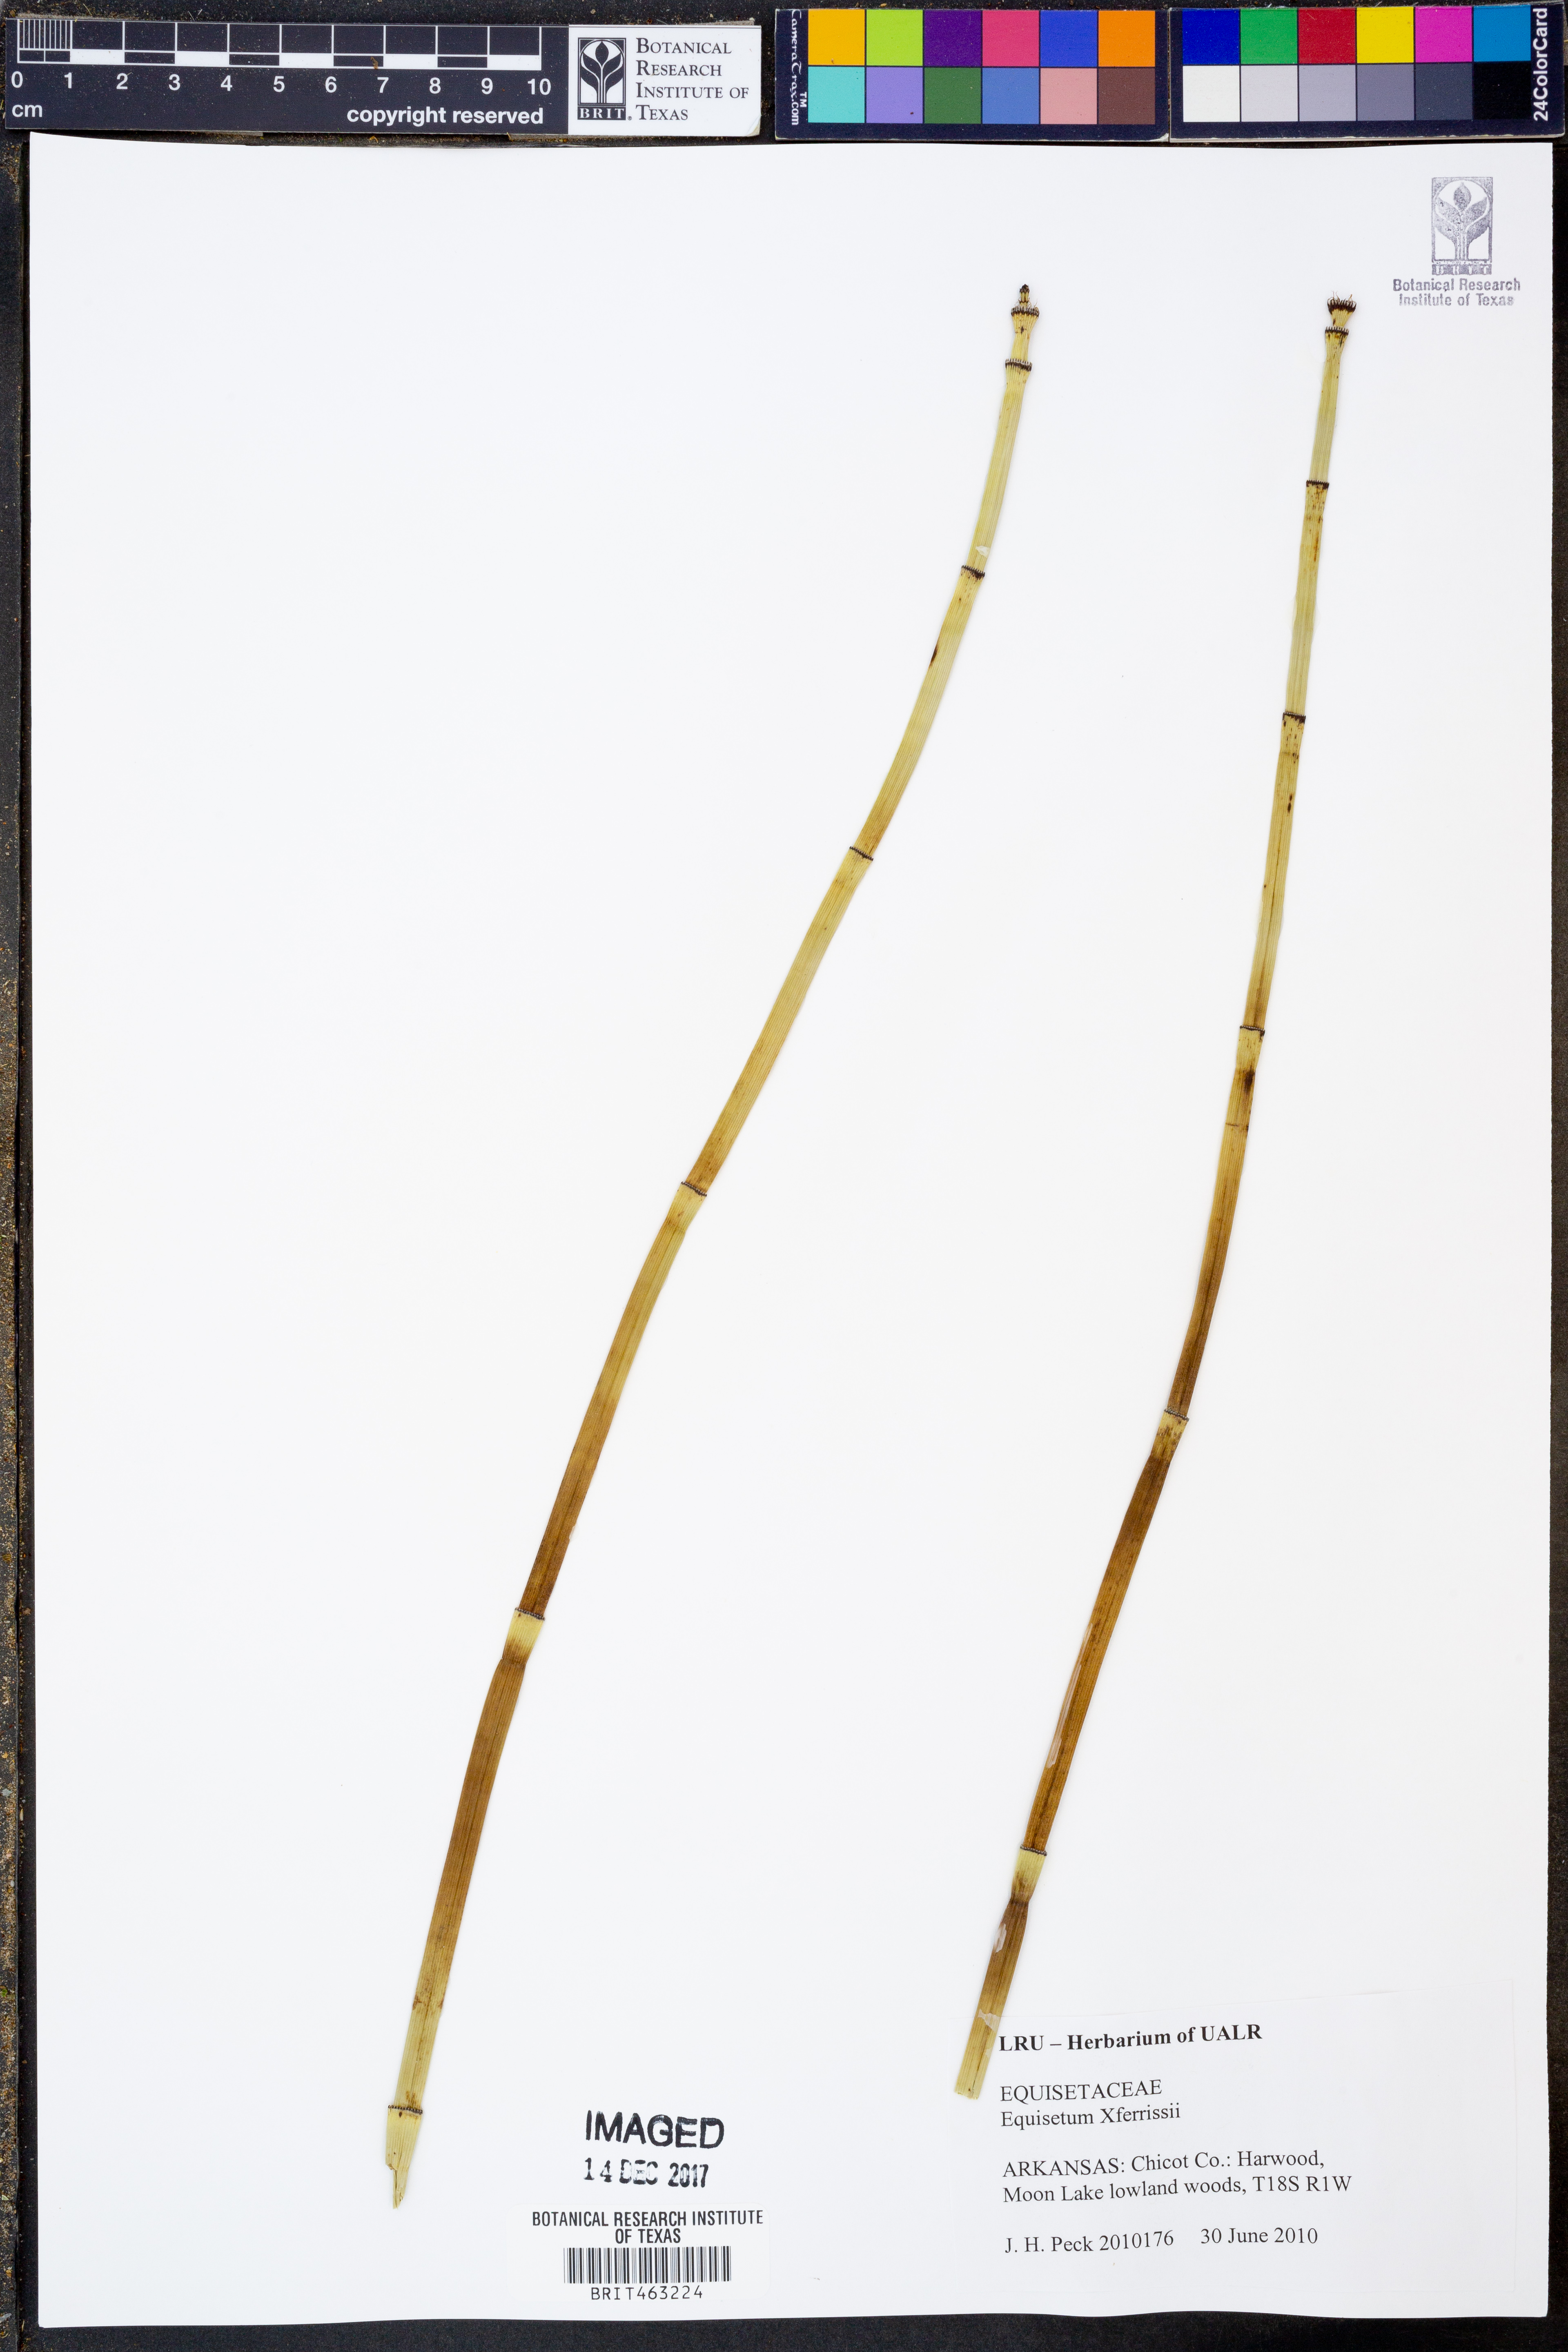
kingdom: Plantae
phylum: Tracheophyta
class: Polypodiopsida
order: Equisetales
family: Equisetaceae
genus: Equisetum
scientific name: Equisetum ferrissii
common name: Ferriss' horsetail
